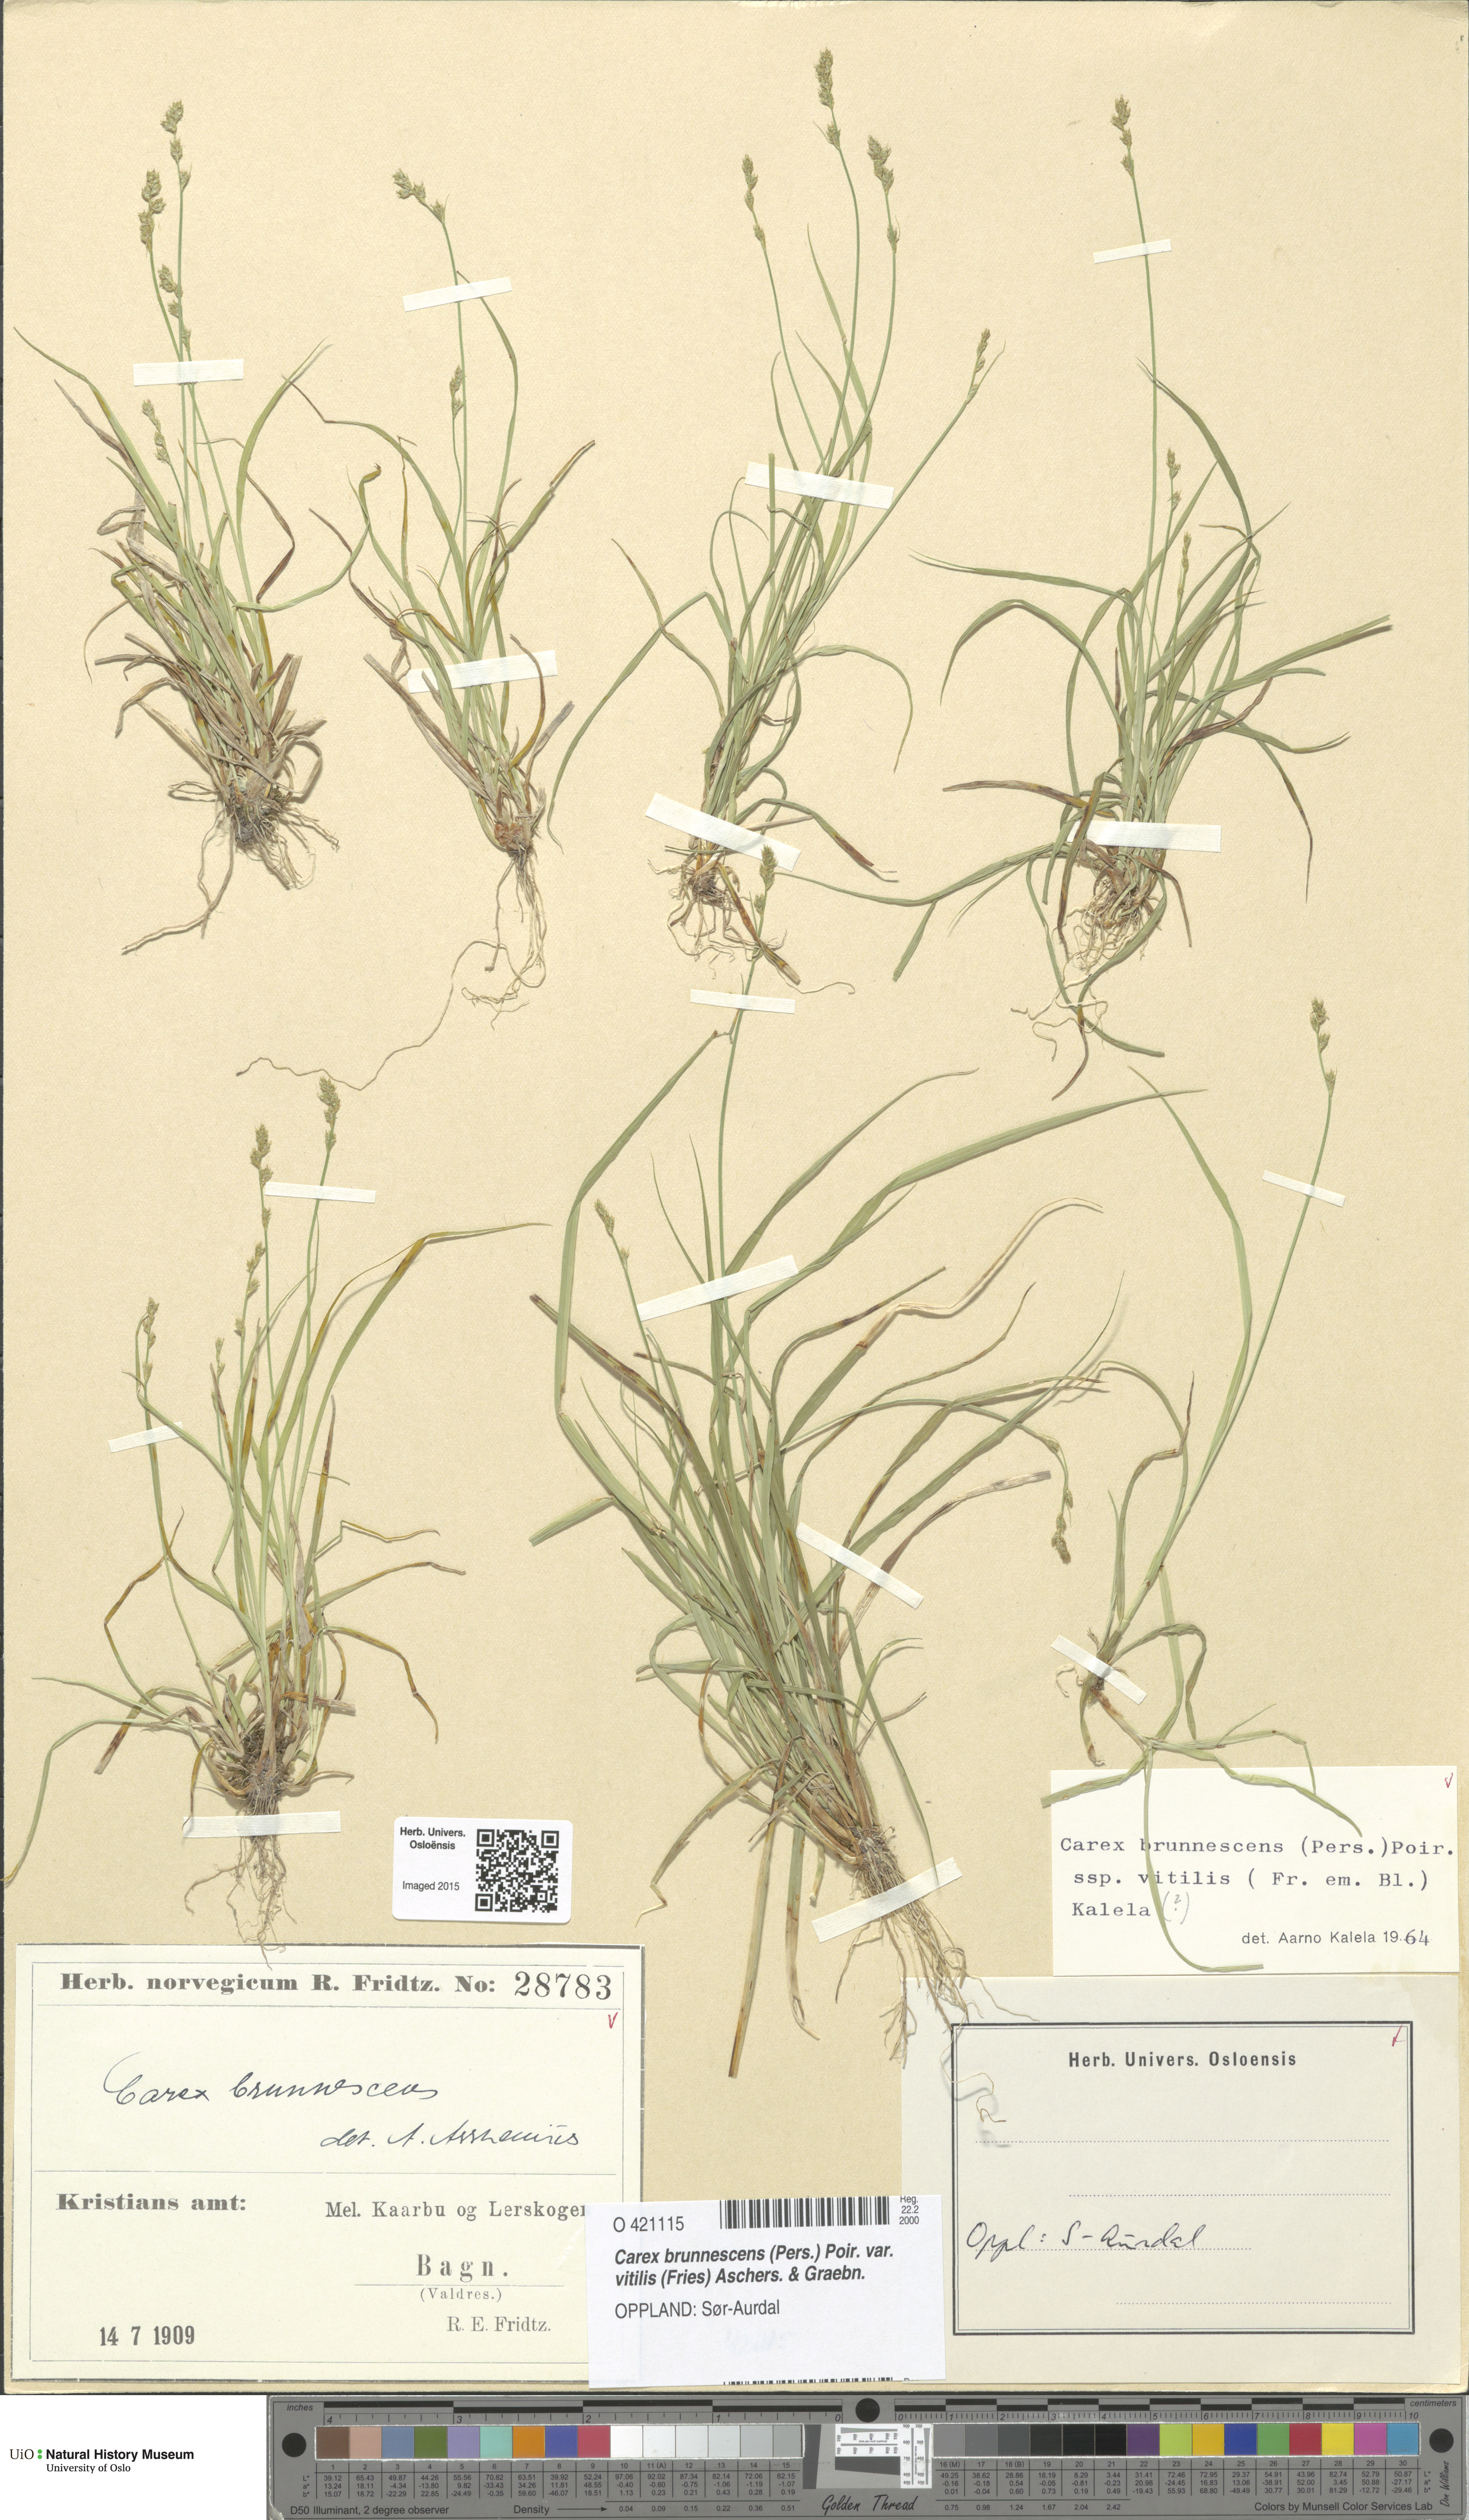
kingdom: Plantae
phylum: Tracheophyta
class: Liliopsida
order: Poales
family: Cyperaceae
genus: Carex
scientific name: Carex brunnescens
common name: Brown sedge
